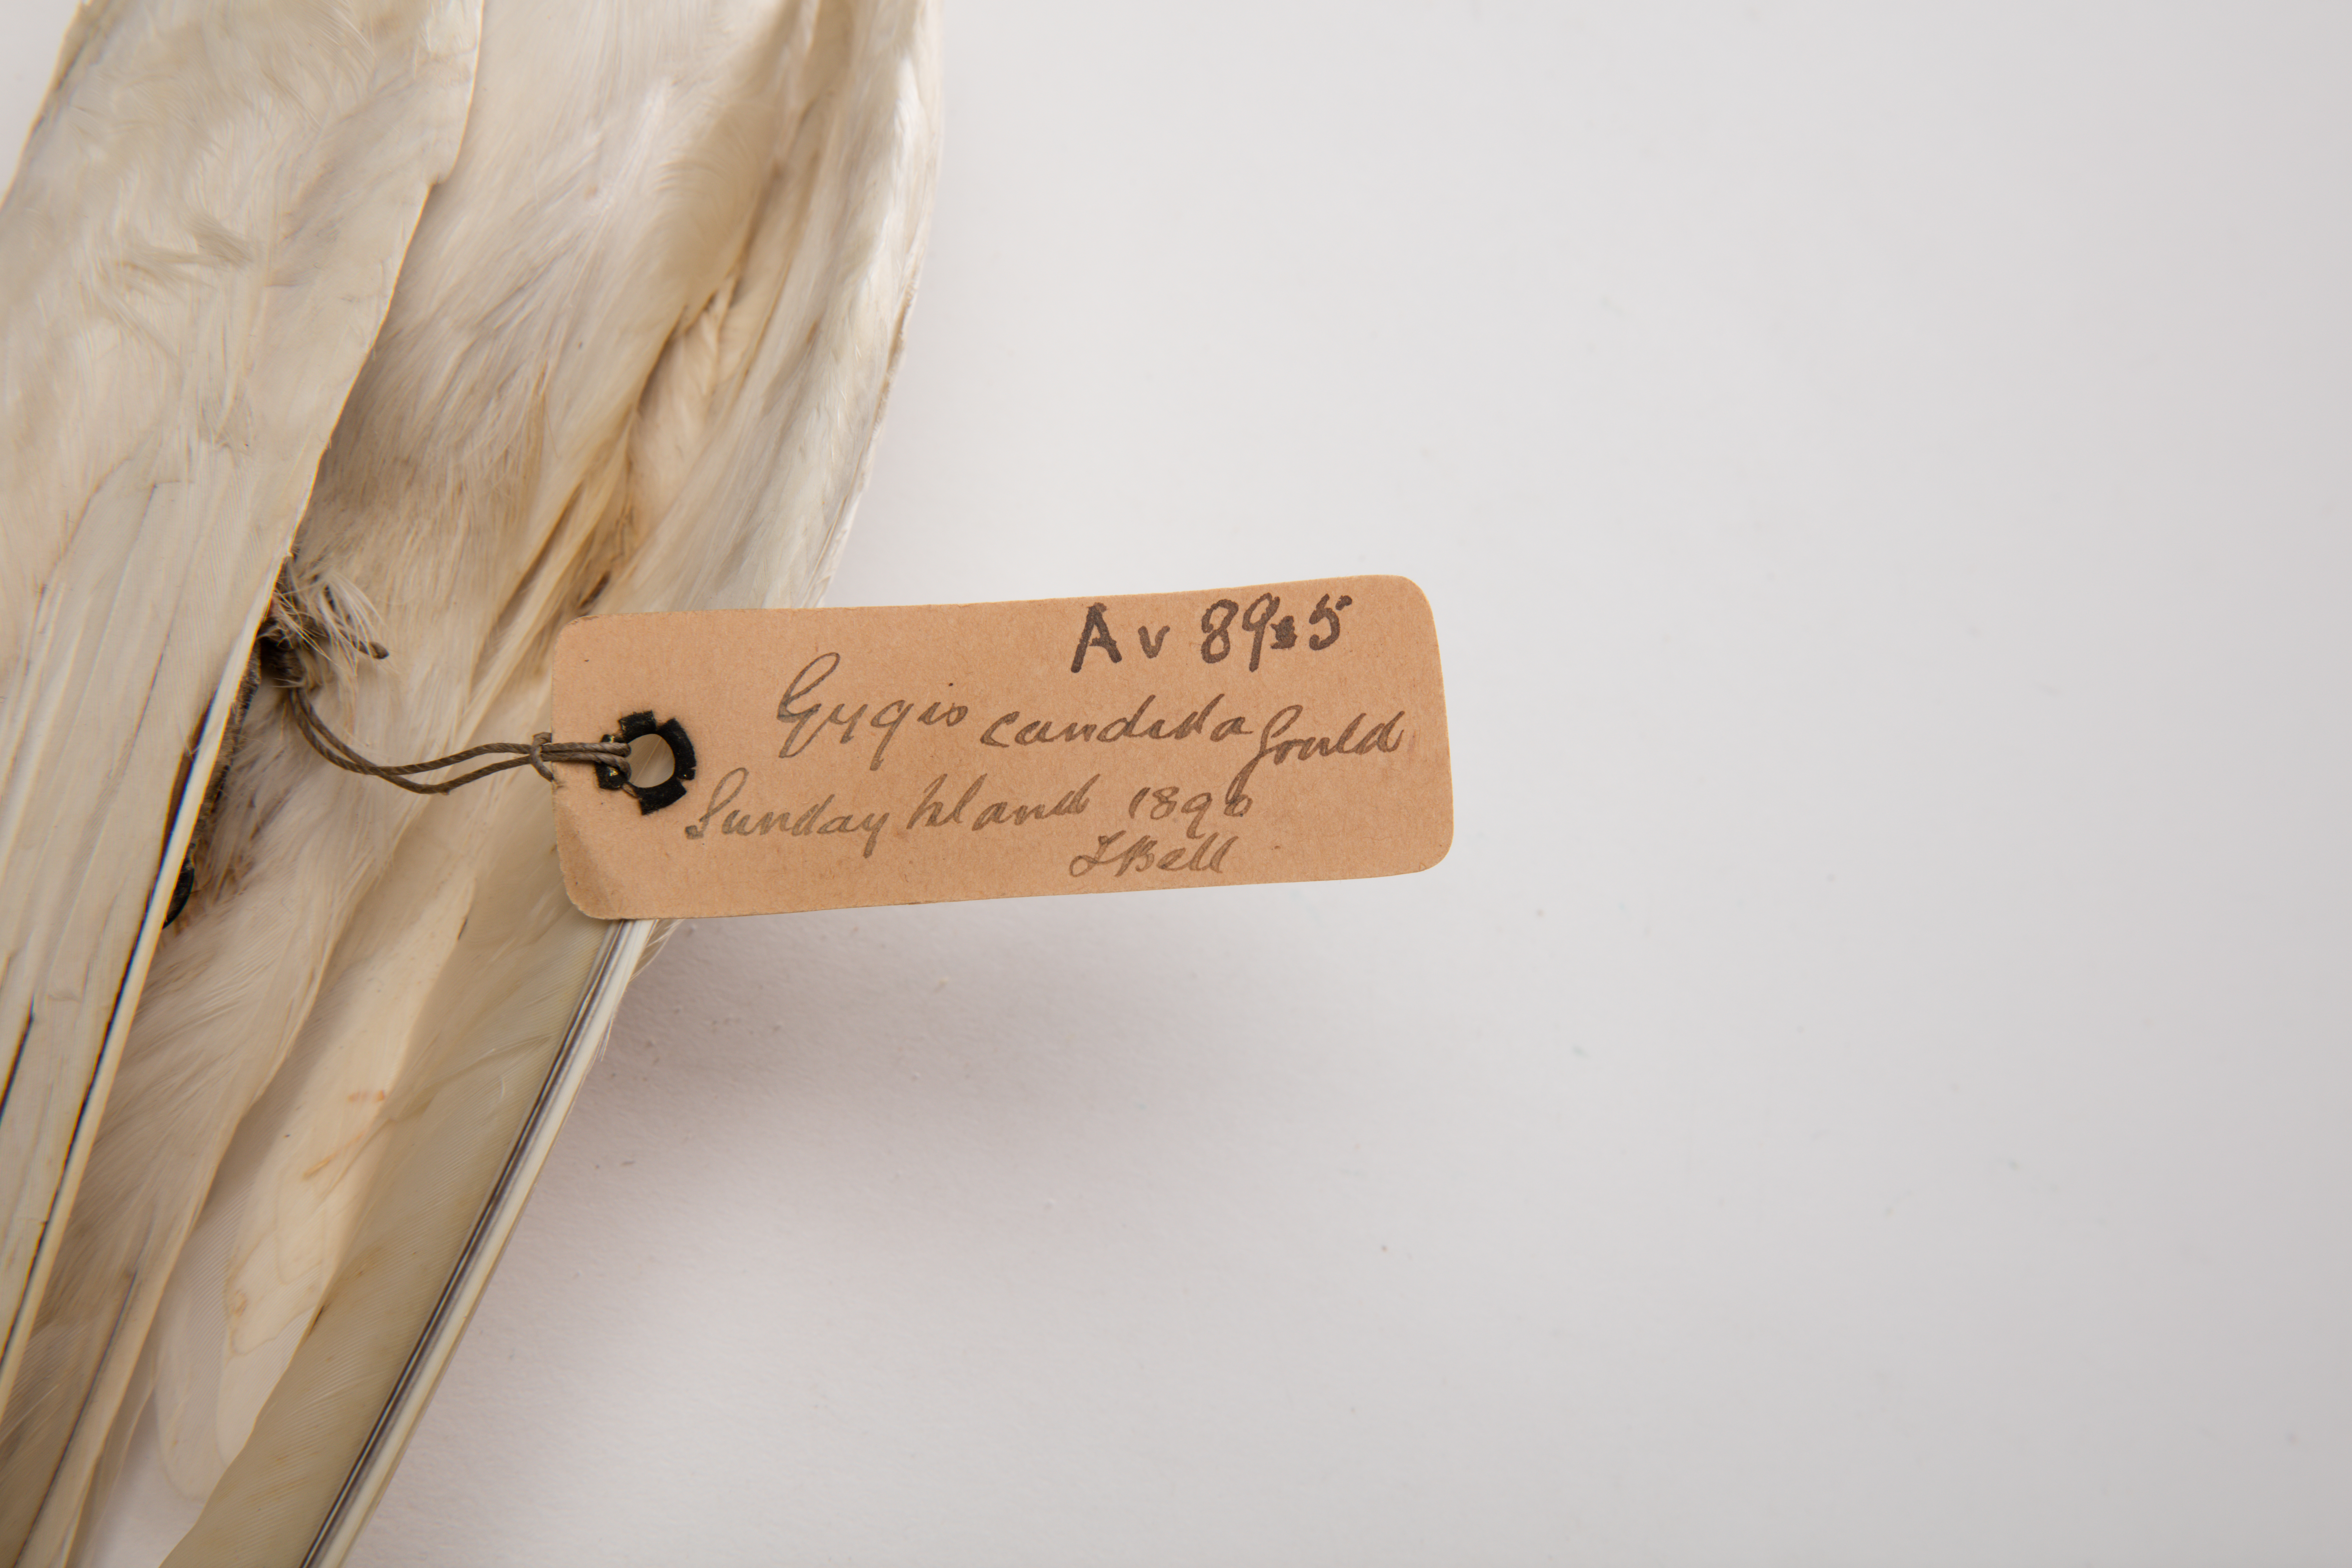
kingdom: Animalia
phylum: Chordata
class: Aves
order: Charadriiformes
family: Laridae
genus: Gygis
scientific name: Gygis alba
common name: White tern
